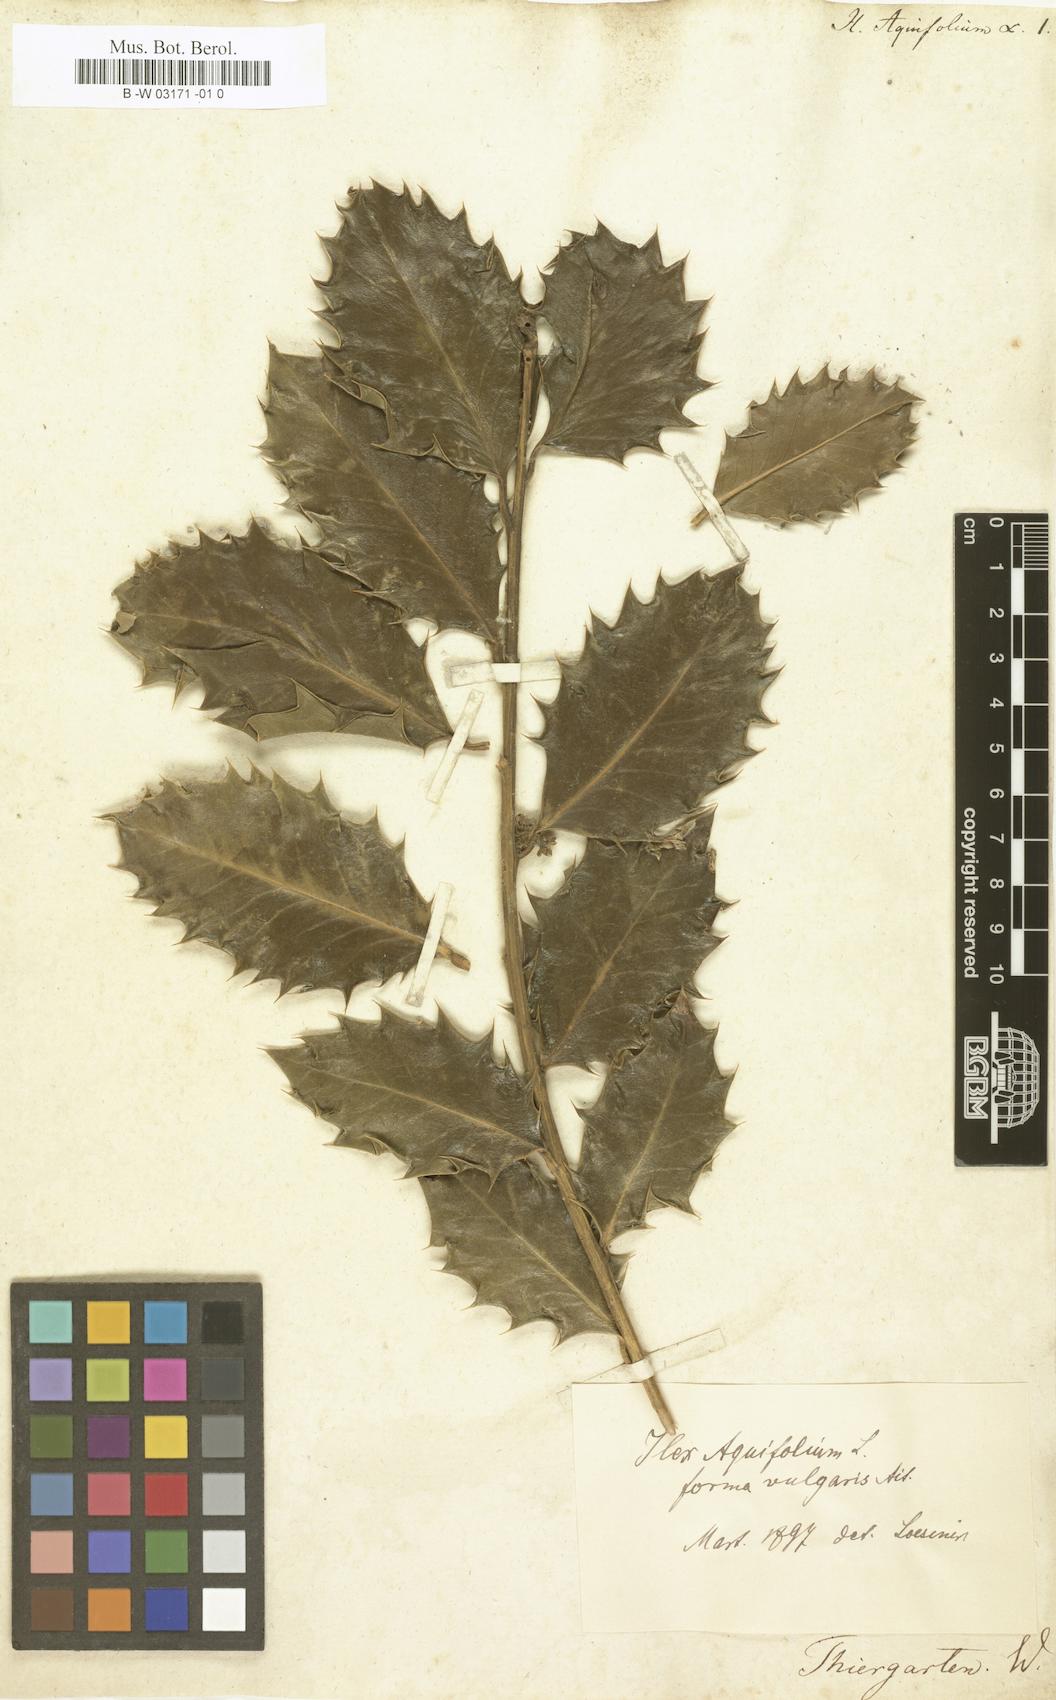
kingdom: Plantae
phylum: Tracheophyta
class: Magnoliopsida
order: Aquifoliales
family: Aquifoliaceae
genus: Ilex
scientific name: Ilex aquifolium
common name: English holly
